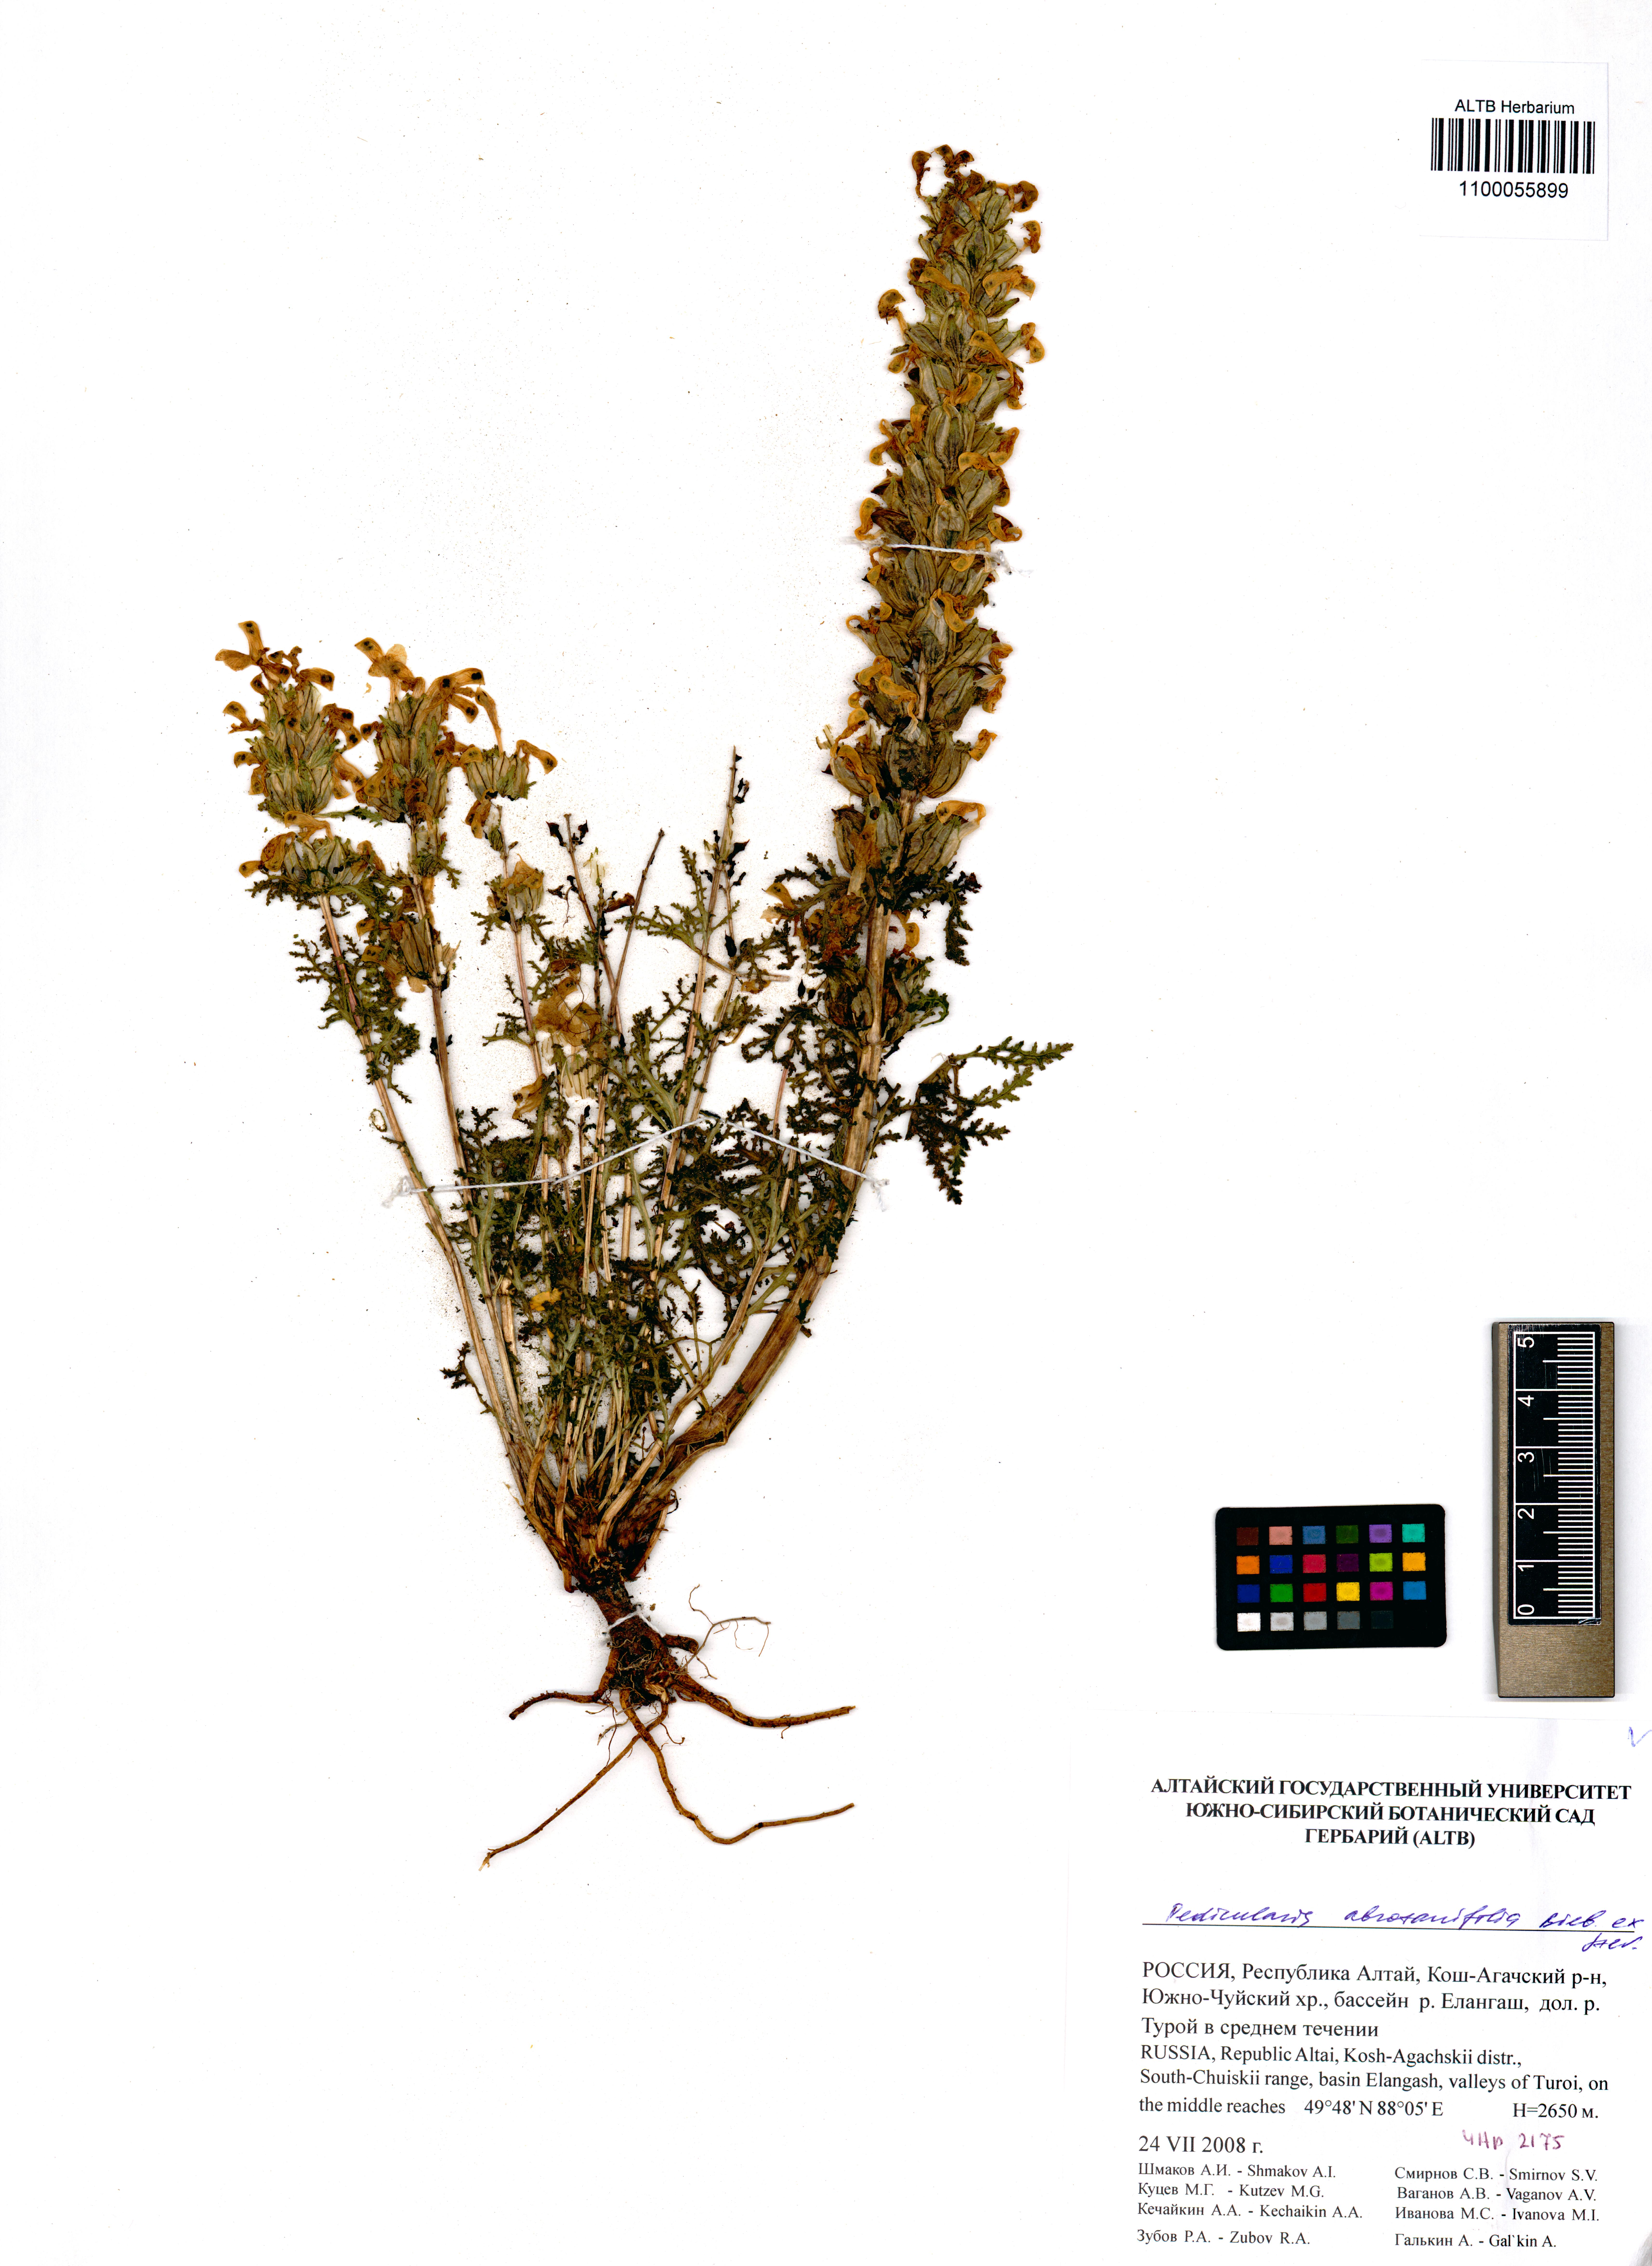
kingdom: Plantae
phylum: Tracheophyta
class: Magnoliopsida
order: Lamiales
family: Orobanchaceae
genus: Pedicularis
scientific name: Pedicularis abrotanifolia
